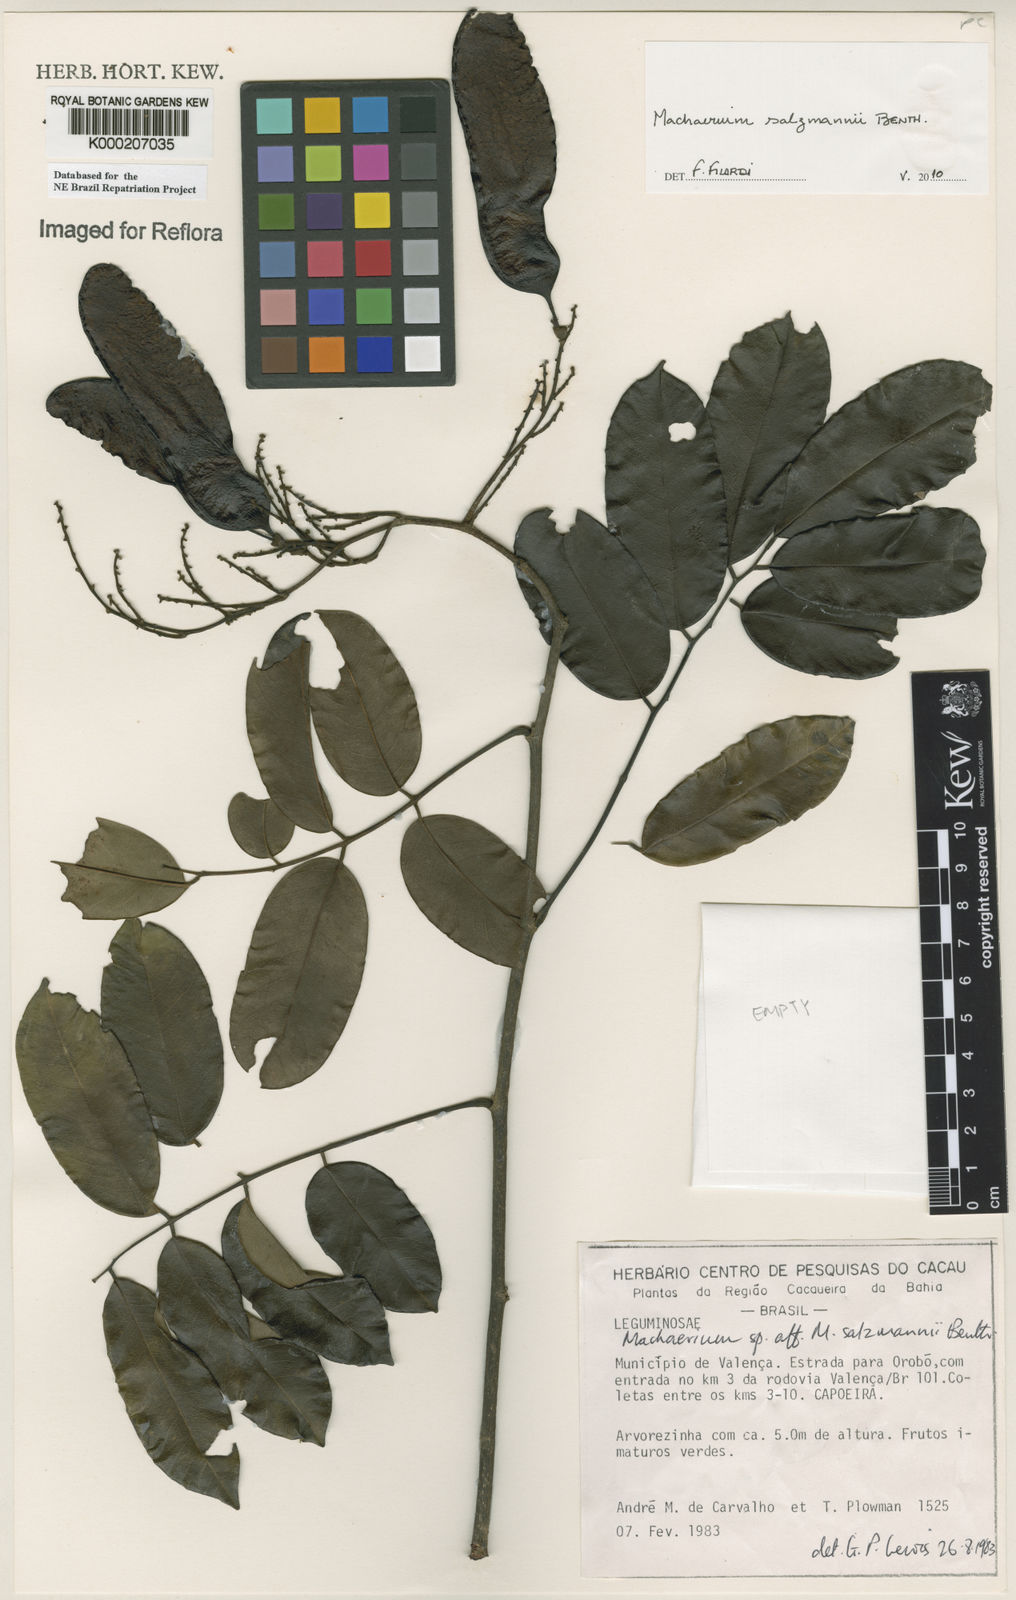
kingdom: Plantae
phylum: Tracheophyta
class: Magnoliopsida
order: Fabales
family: Fabaceae
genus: Machaerium
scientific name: Machaerium salzmannii
